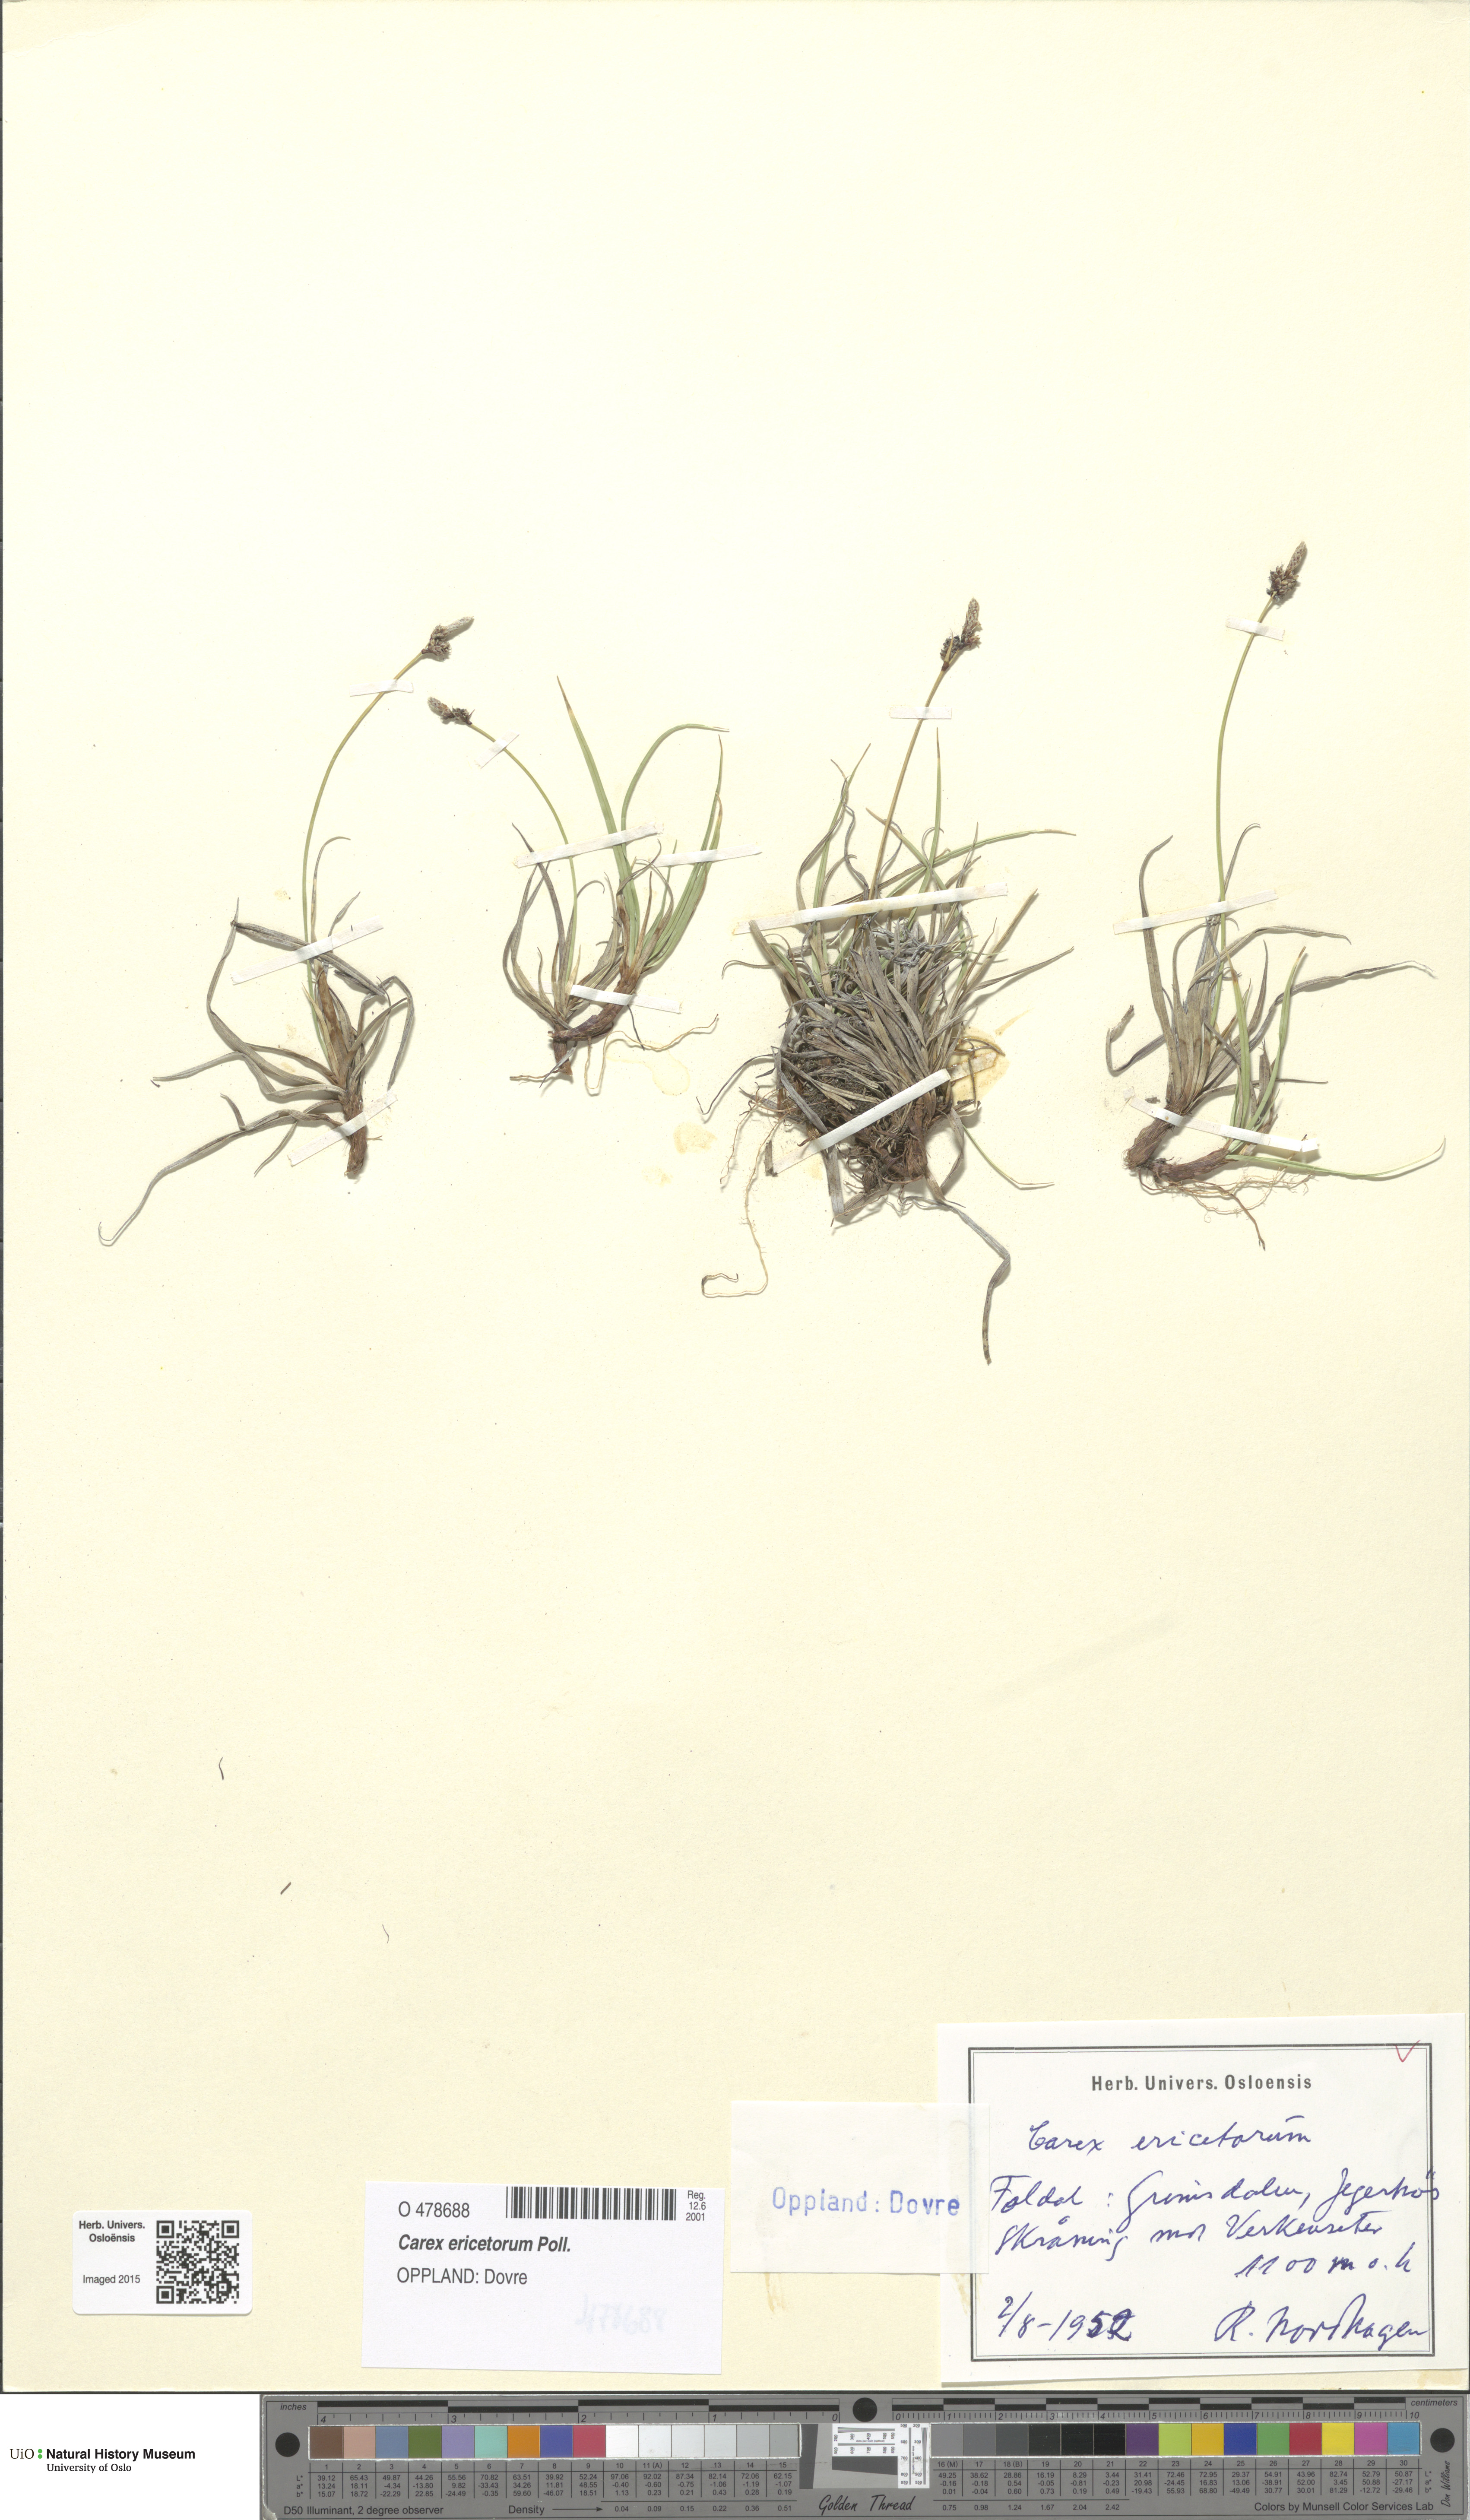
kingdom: Plantae
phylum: Tracheophyta
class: Liliopsida
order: Poales
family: Cyperaceae
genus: Carex
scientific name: Carex ericetorum
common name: Rare spring-sedge
